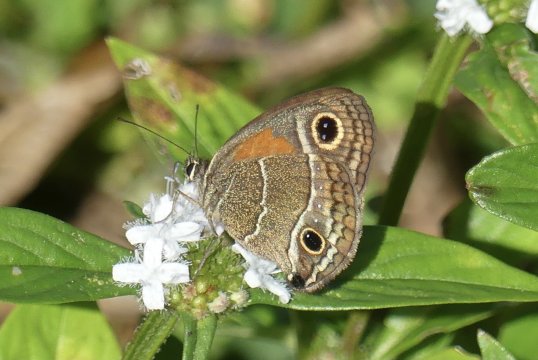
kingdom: Animalia
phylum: Arthropoda
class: Insecta
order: Lepidoptera
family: Nymphalidae
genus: Calisto
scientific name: Calisto confusa
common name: Confused Calisto
